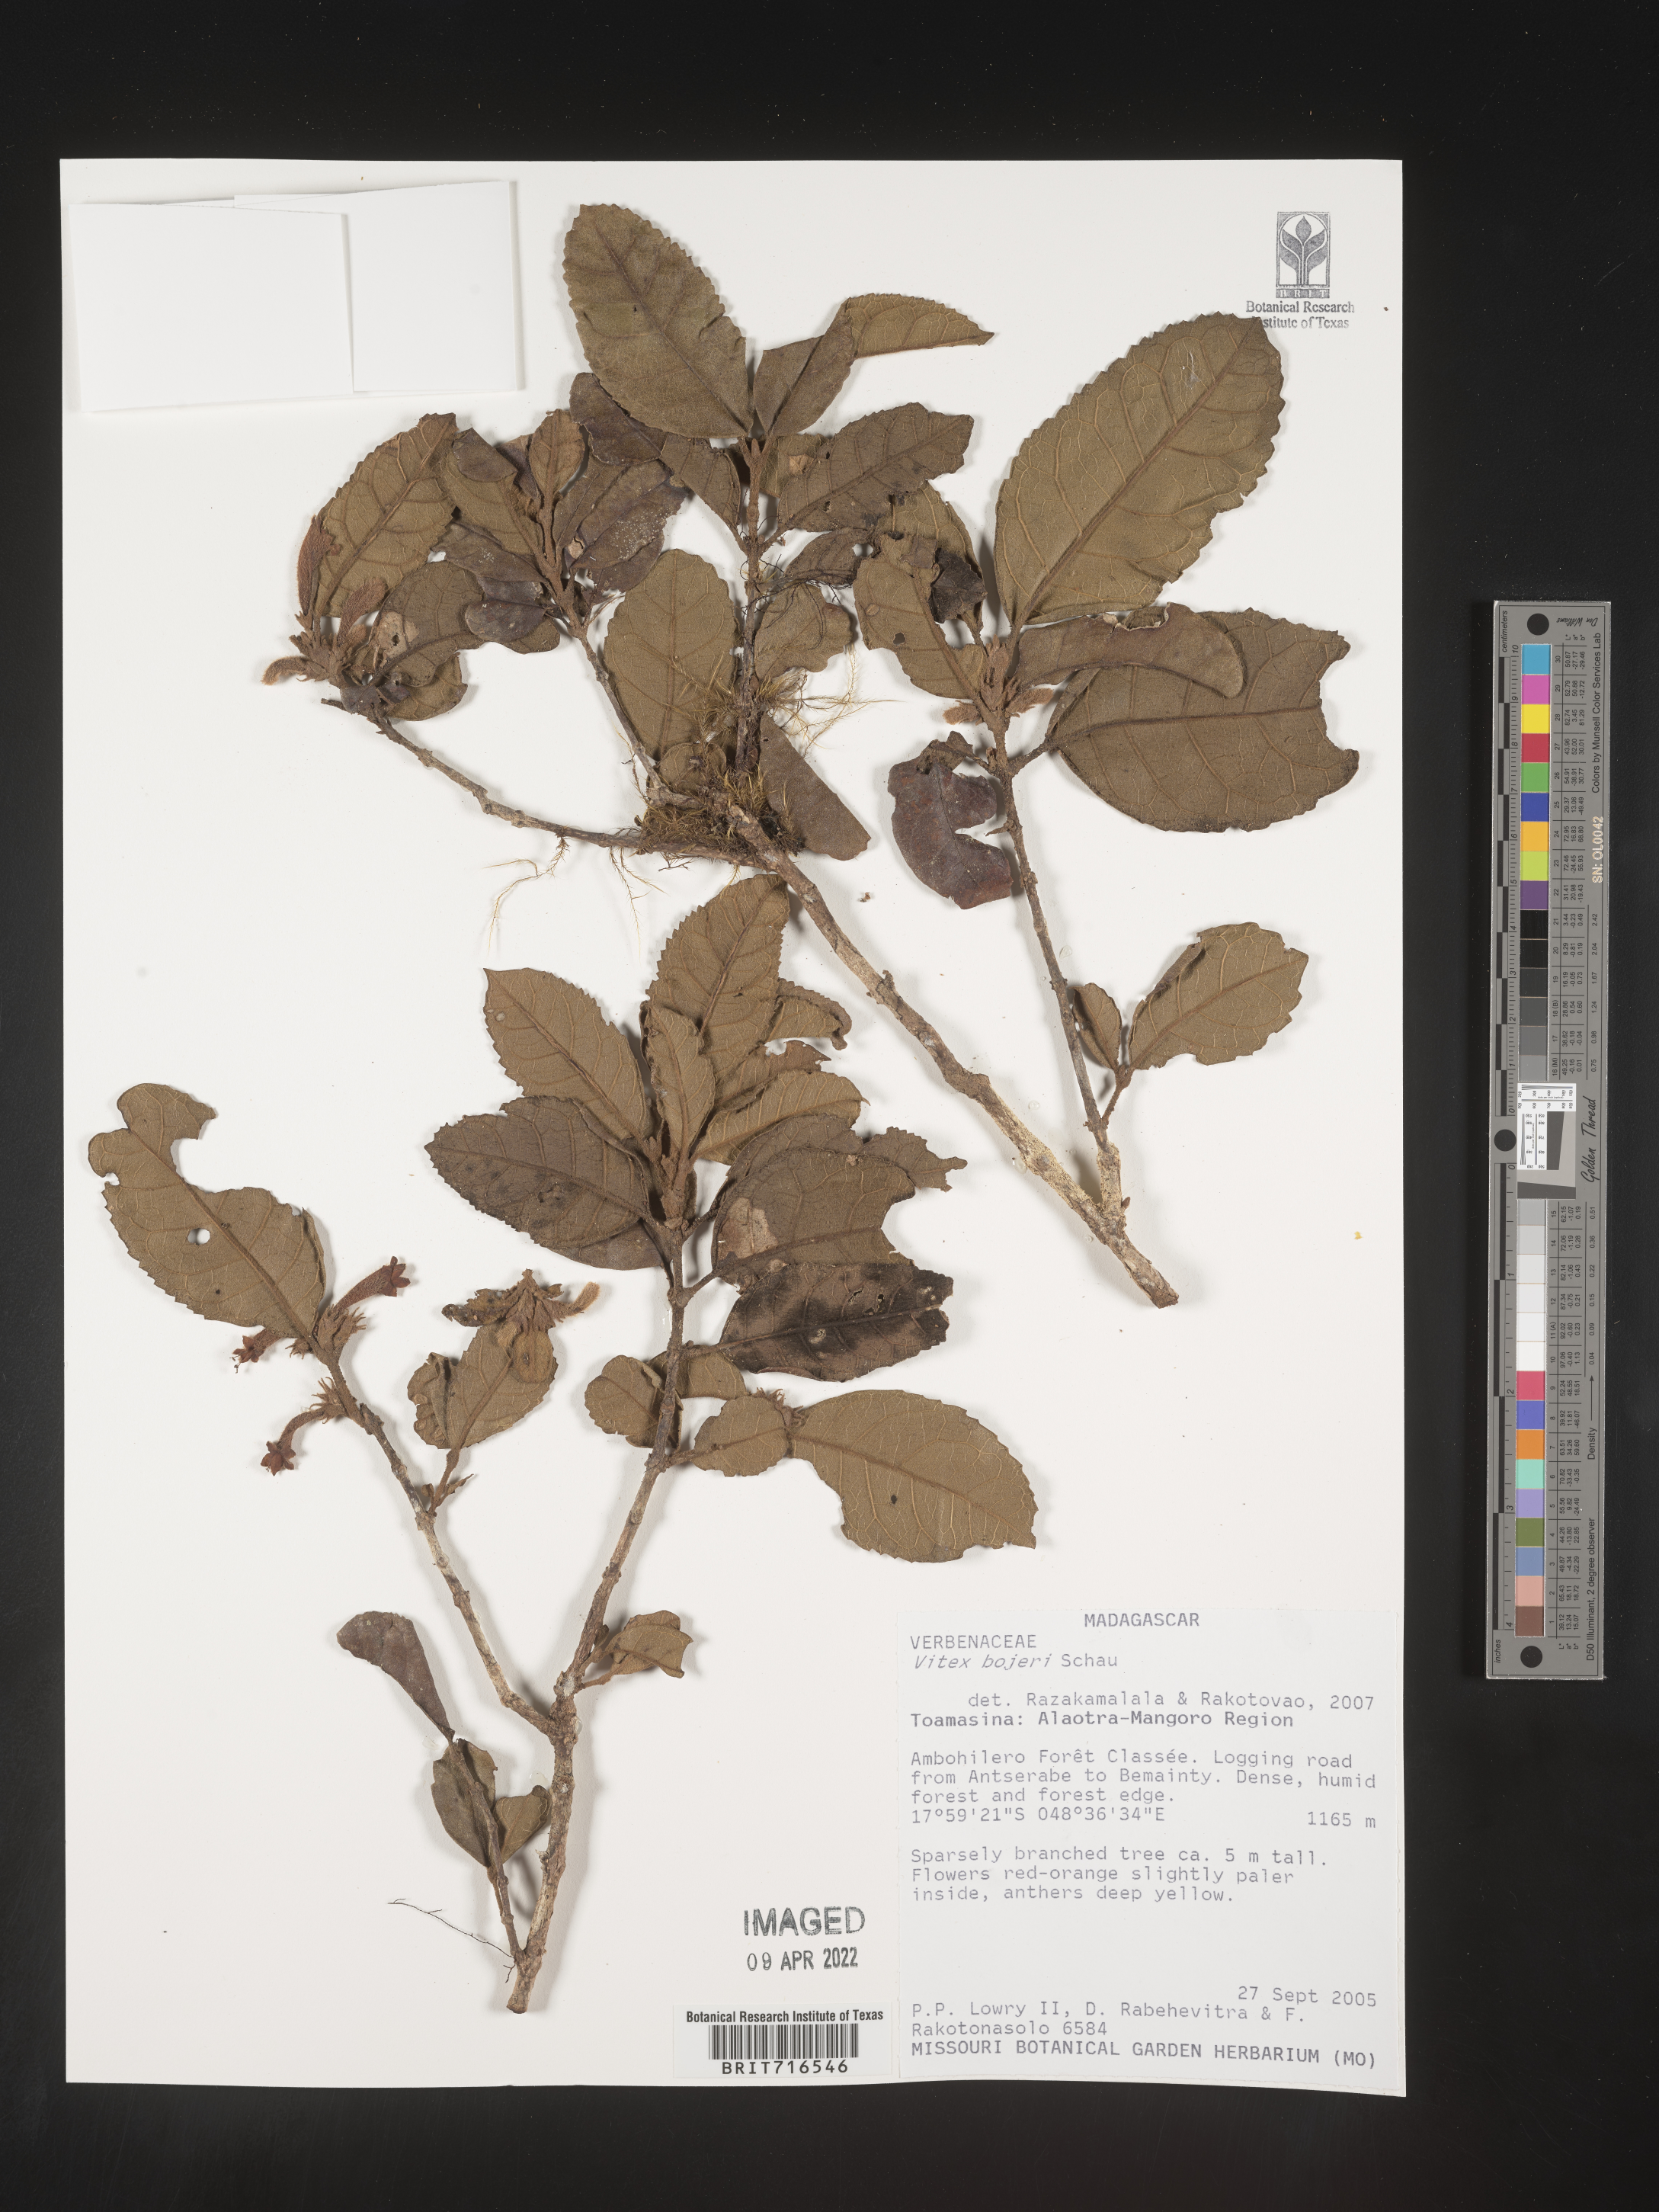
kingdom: Plantae
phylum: Tracheophyta
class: Magnoliopsida
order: Lamiales
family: Lamiaceae
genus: Vitex
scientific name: Vitex
